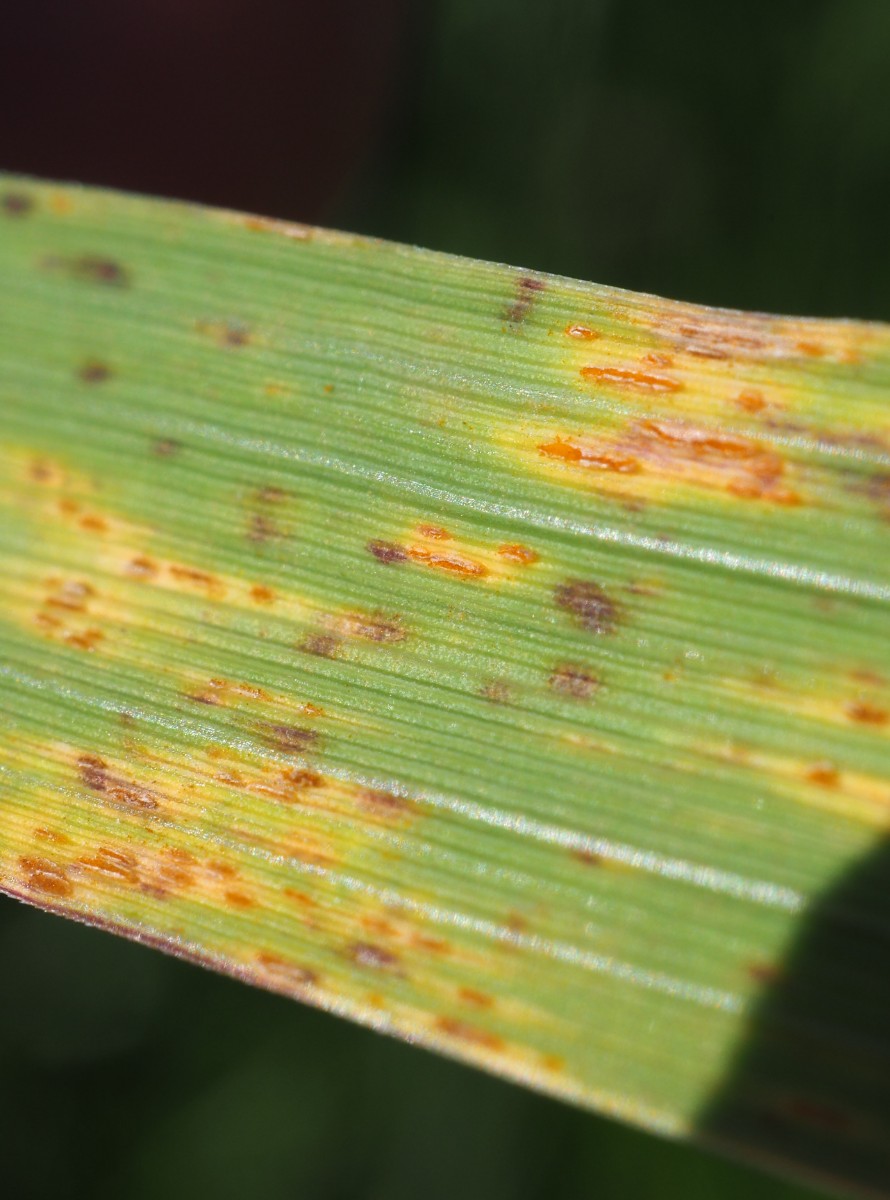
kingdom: Fungi
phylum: Basidiomycota
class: Pucciniomycetes
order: Pucciniales
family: Pucciniaceae
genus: Puccinia
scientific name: Puccinia pygmaea
